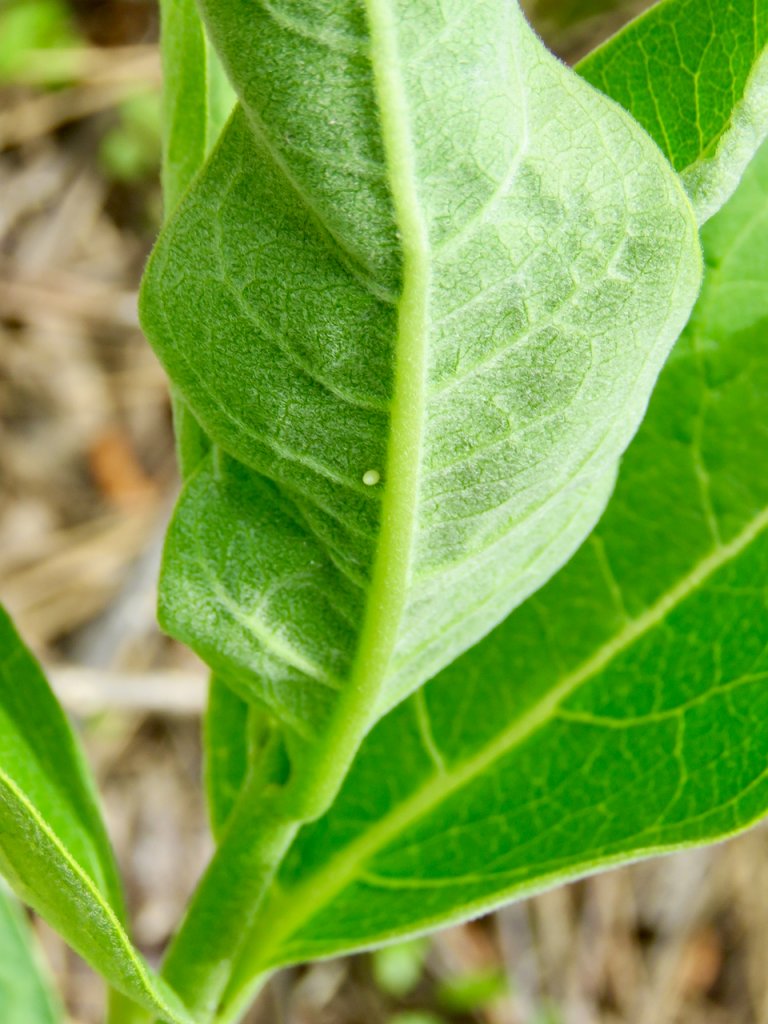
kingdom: Animalia
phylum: Arthropoda
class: Insecta
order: Lepidoptera
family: Nymphalidae
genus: Danaus
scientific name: Danaus plexippus
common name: Monarch
